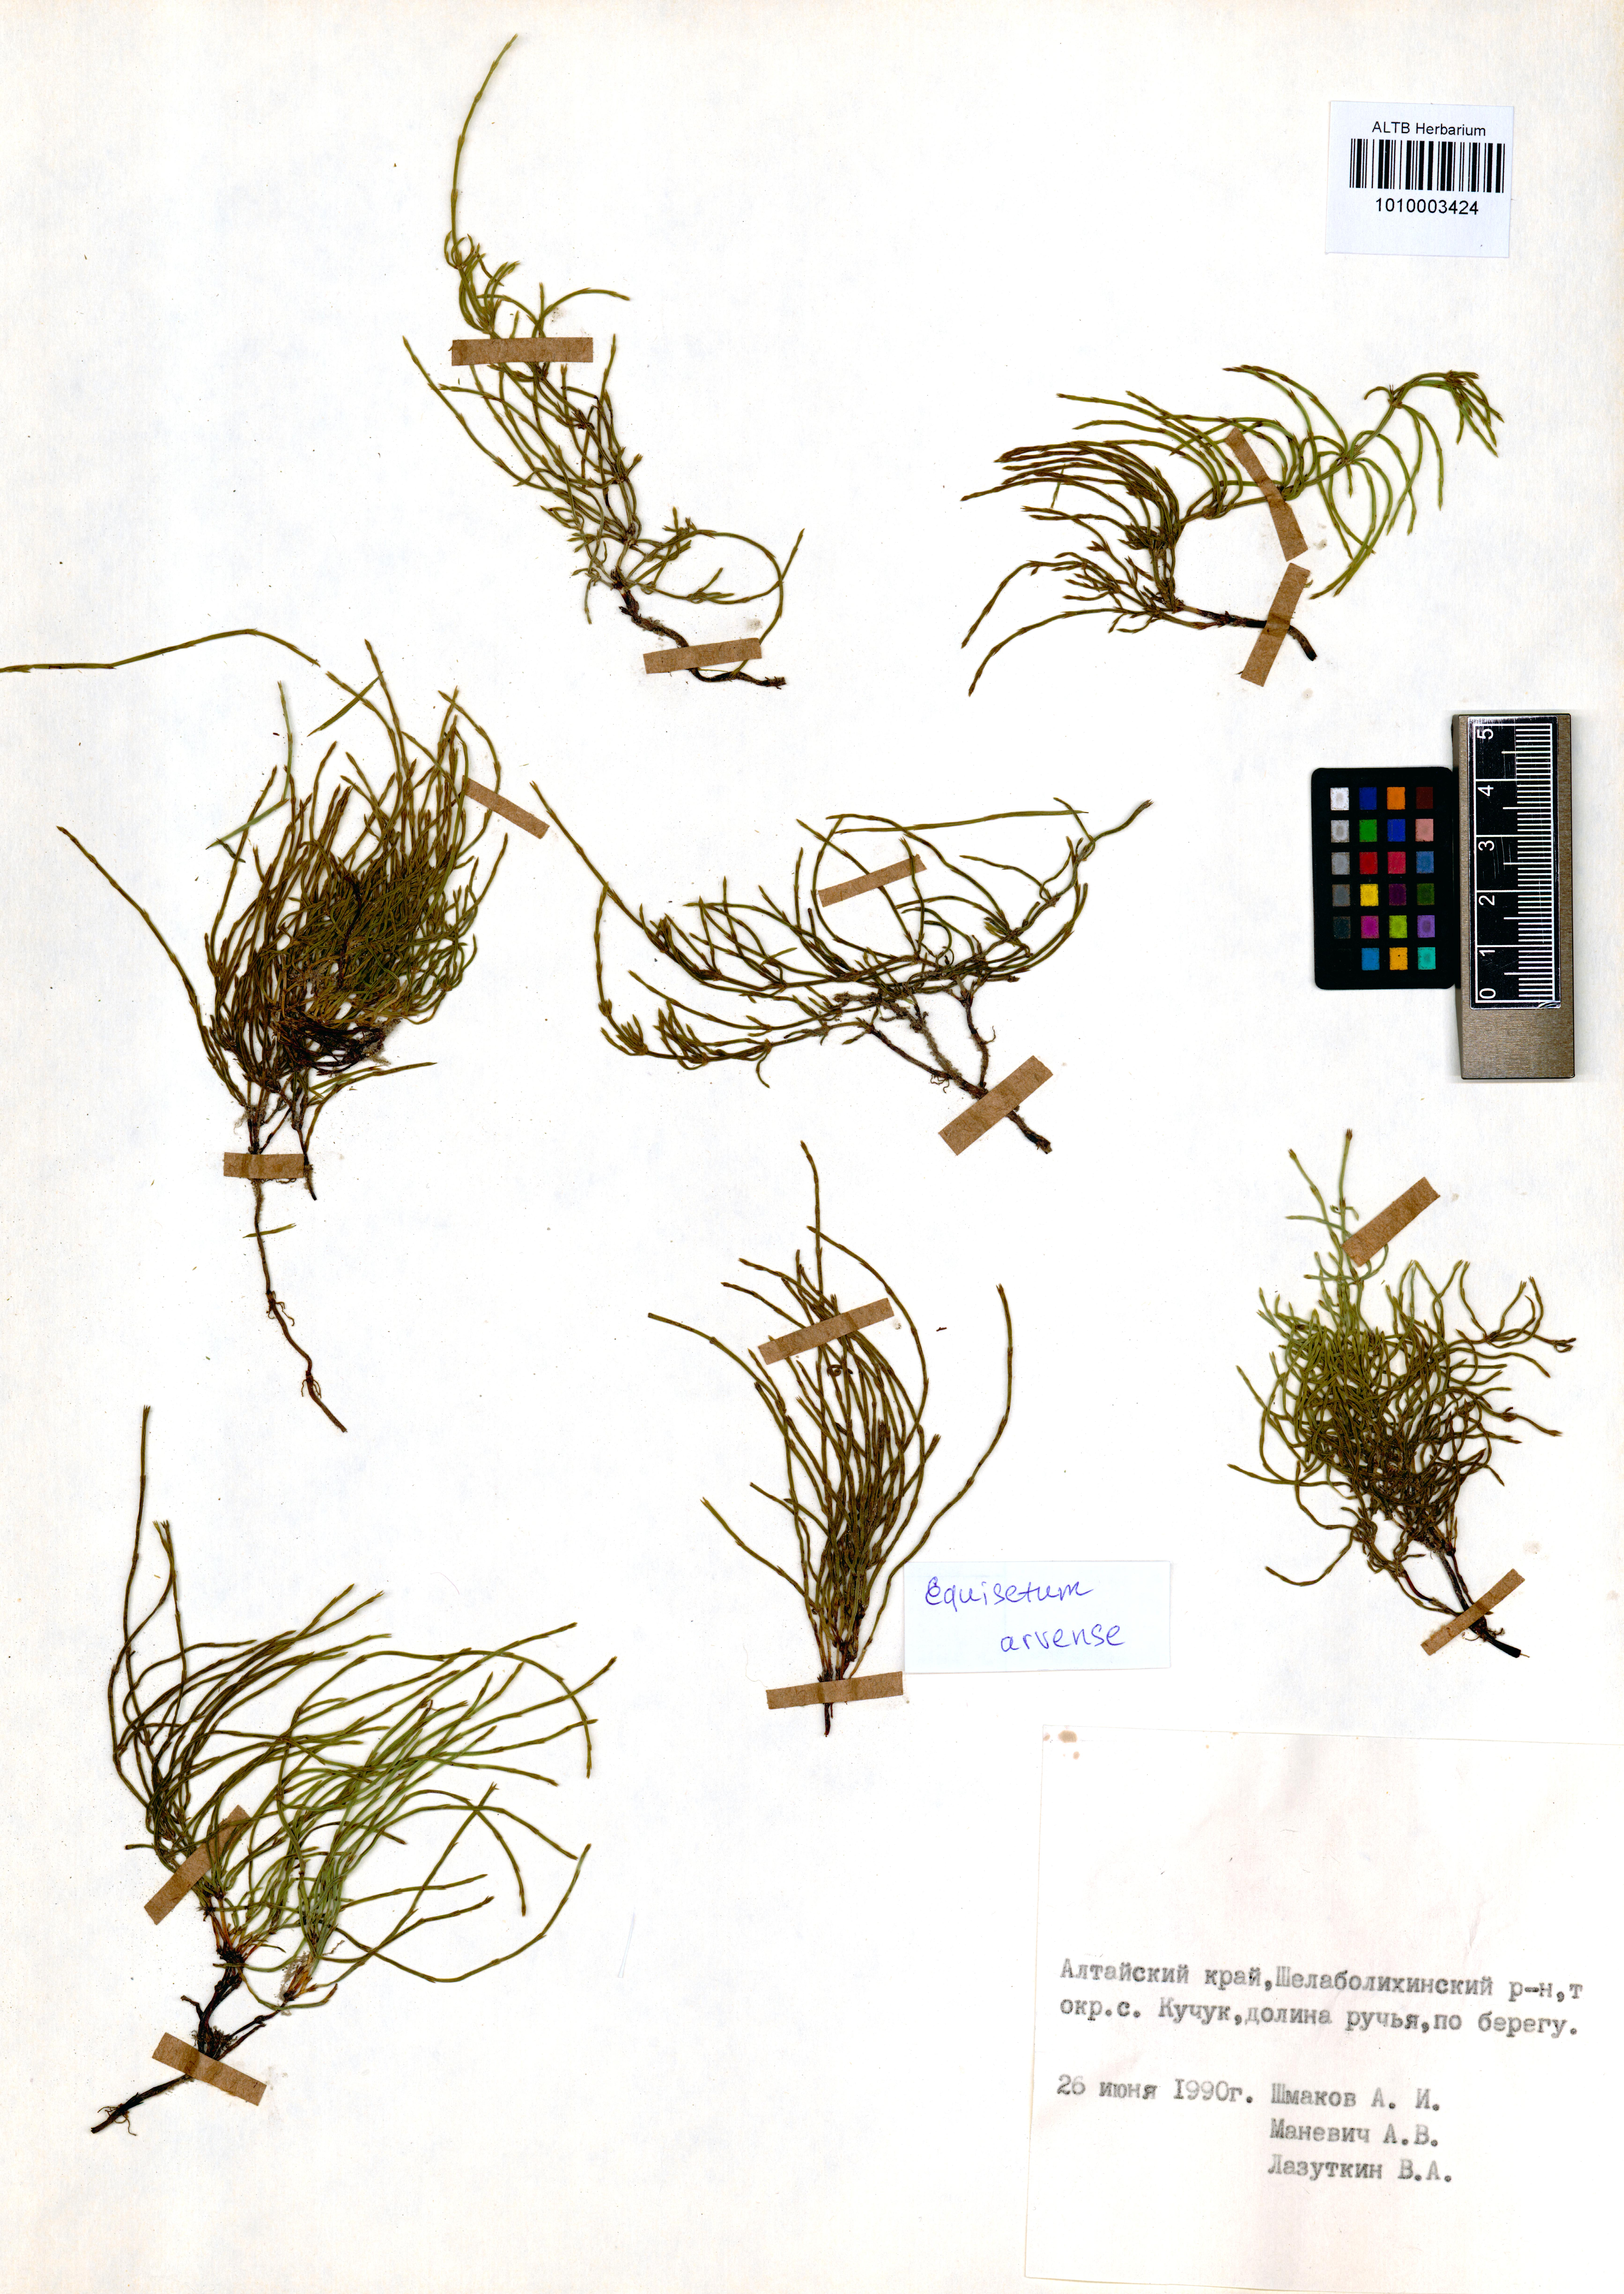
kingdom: Plantae
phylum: Tracheophyta
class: Polypodiopsida
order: Equisetales
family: Equisetaceae
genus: Equisetum
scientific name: Equisetum arvense
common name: Field horsetail
